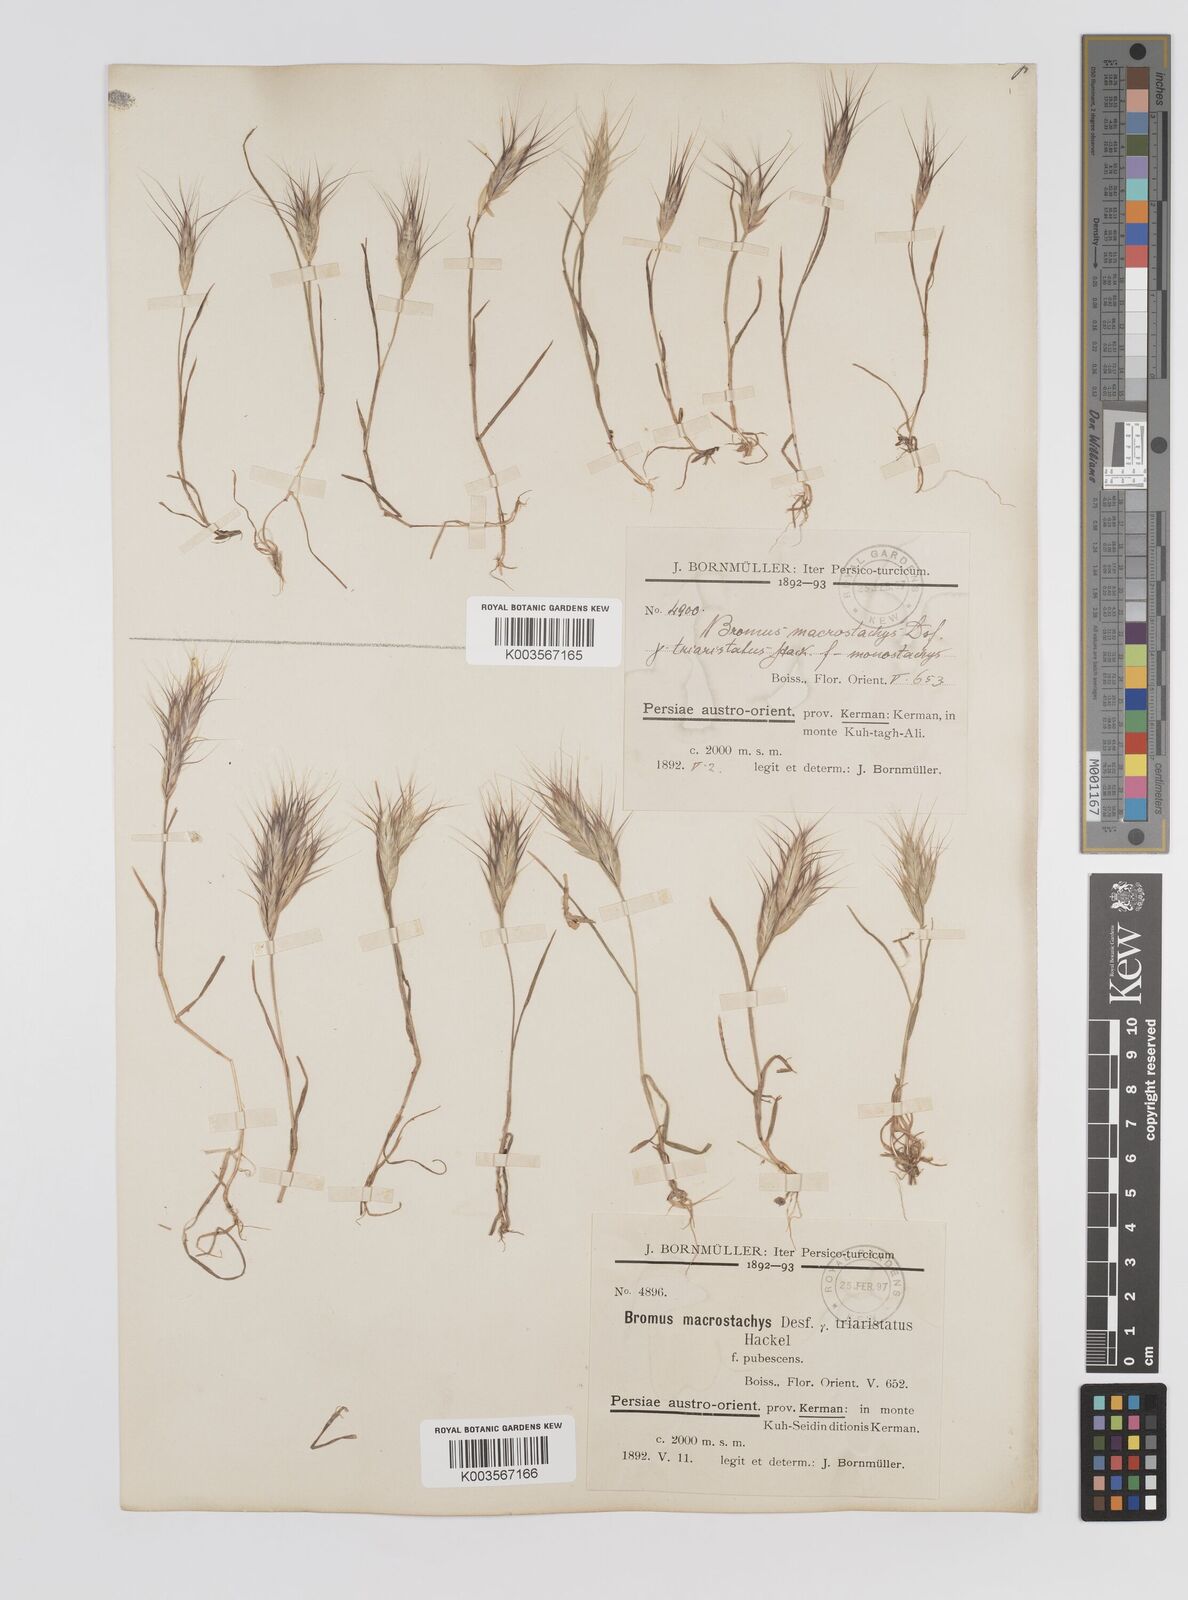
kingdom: Plantae
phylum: Tracheophyta
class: Liliopsida
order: Poales
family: Poaceae
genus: Bromus
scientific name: Bromus danthoniae
